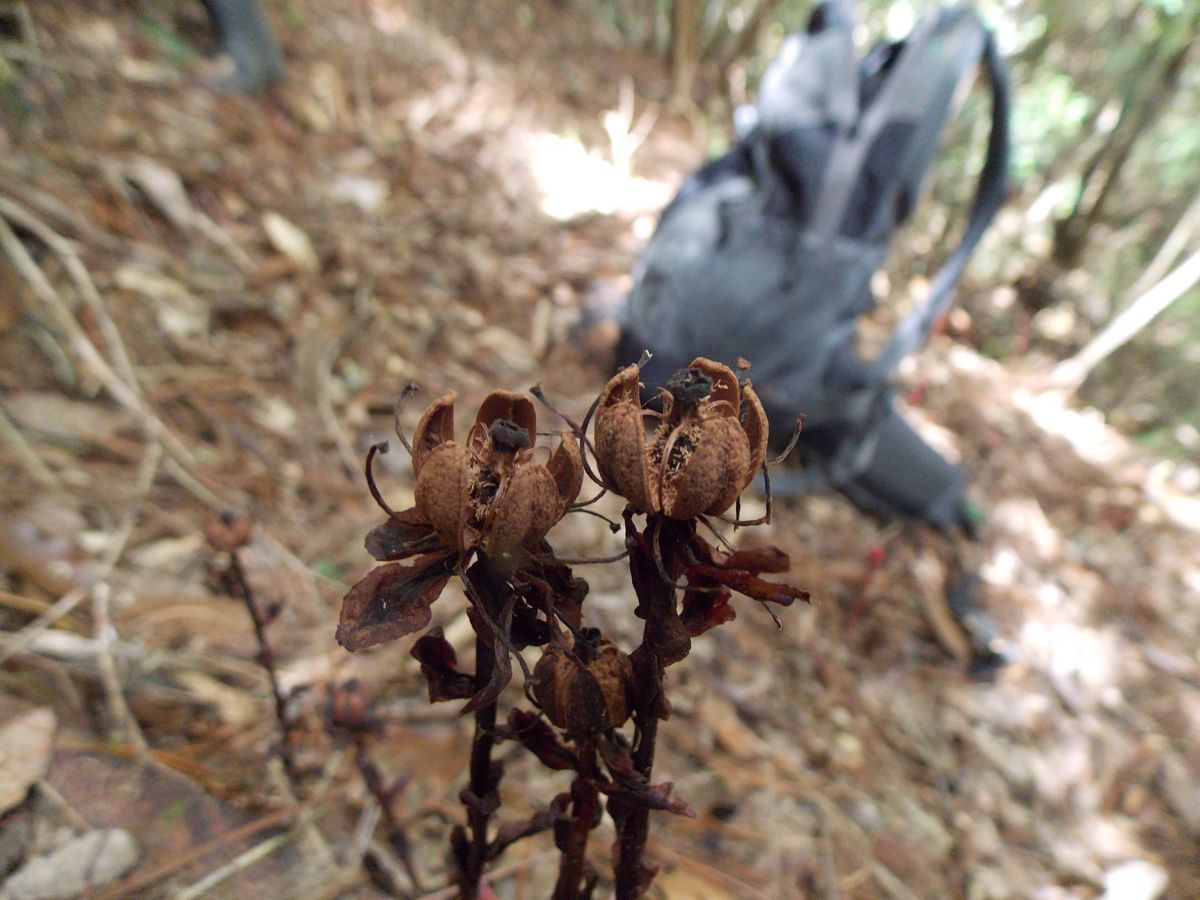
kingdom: Plantae
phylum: Tracheophyta
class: Magnoliopsida
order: Ericales
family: Ericaceae
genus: Monotropa
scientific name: Monotropa uniflora
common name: Convulsion root
